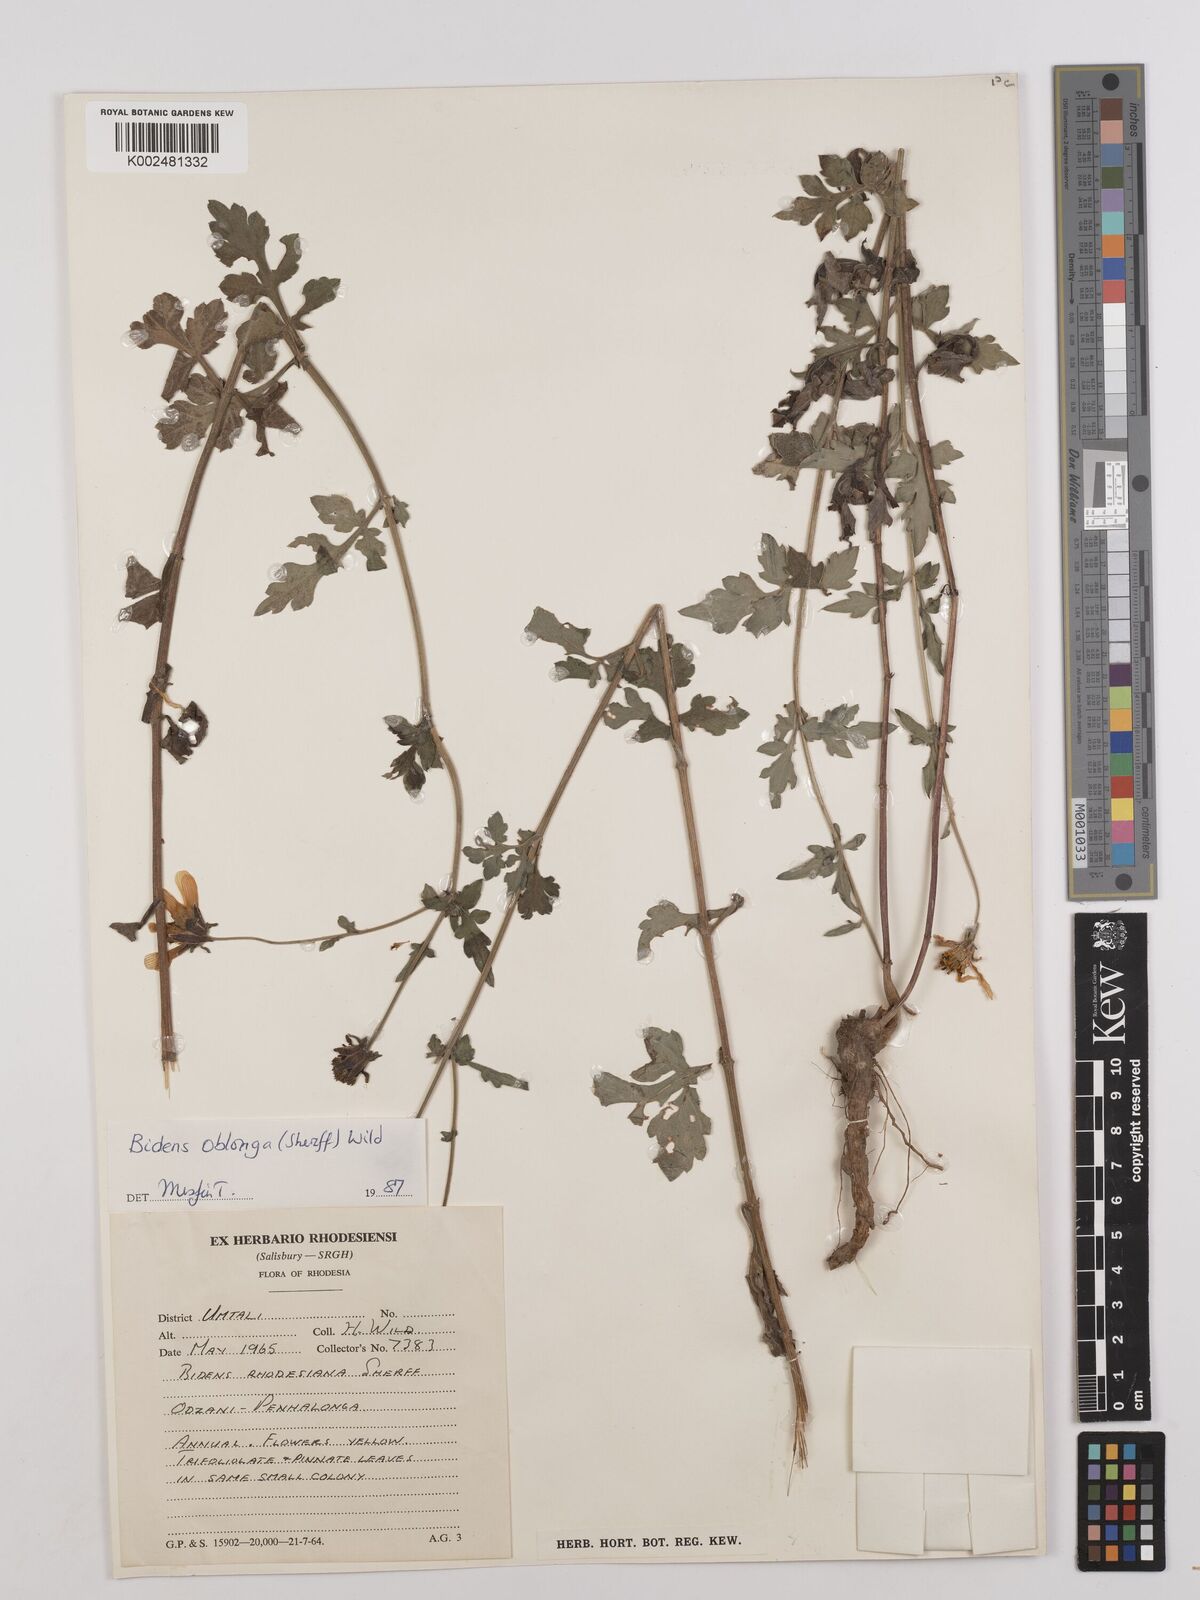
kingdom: Plantae
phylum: Tracheophyta
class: Magnoliopsida
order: Asterales
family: Asteraceae
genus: Bidens
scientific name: Bidens oblonga
